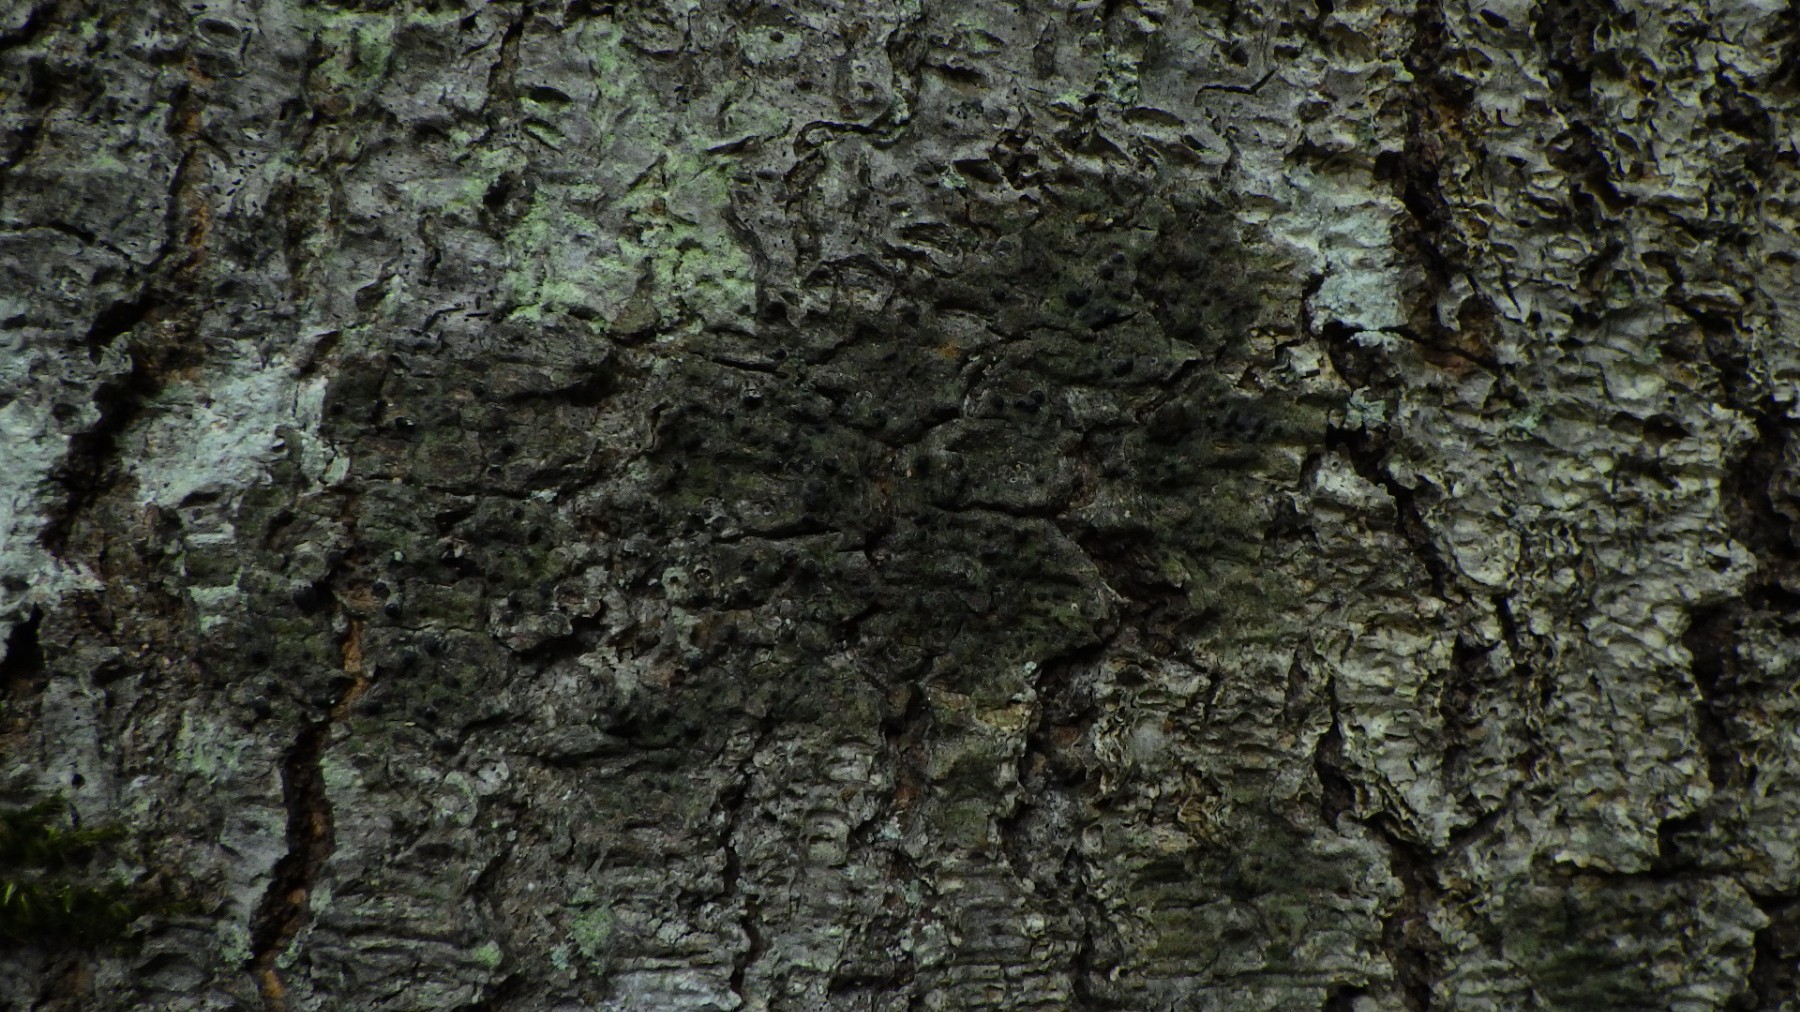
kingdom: Fungi
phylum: Ascomycota
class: Eurotiomycetes
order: Pyrenulales
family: Pyrenulaceae
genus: Pyrenula
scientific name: Pyrenula nitida
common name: glinsende kernelav
